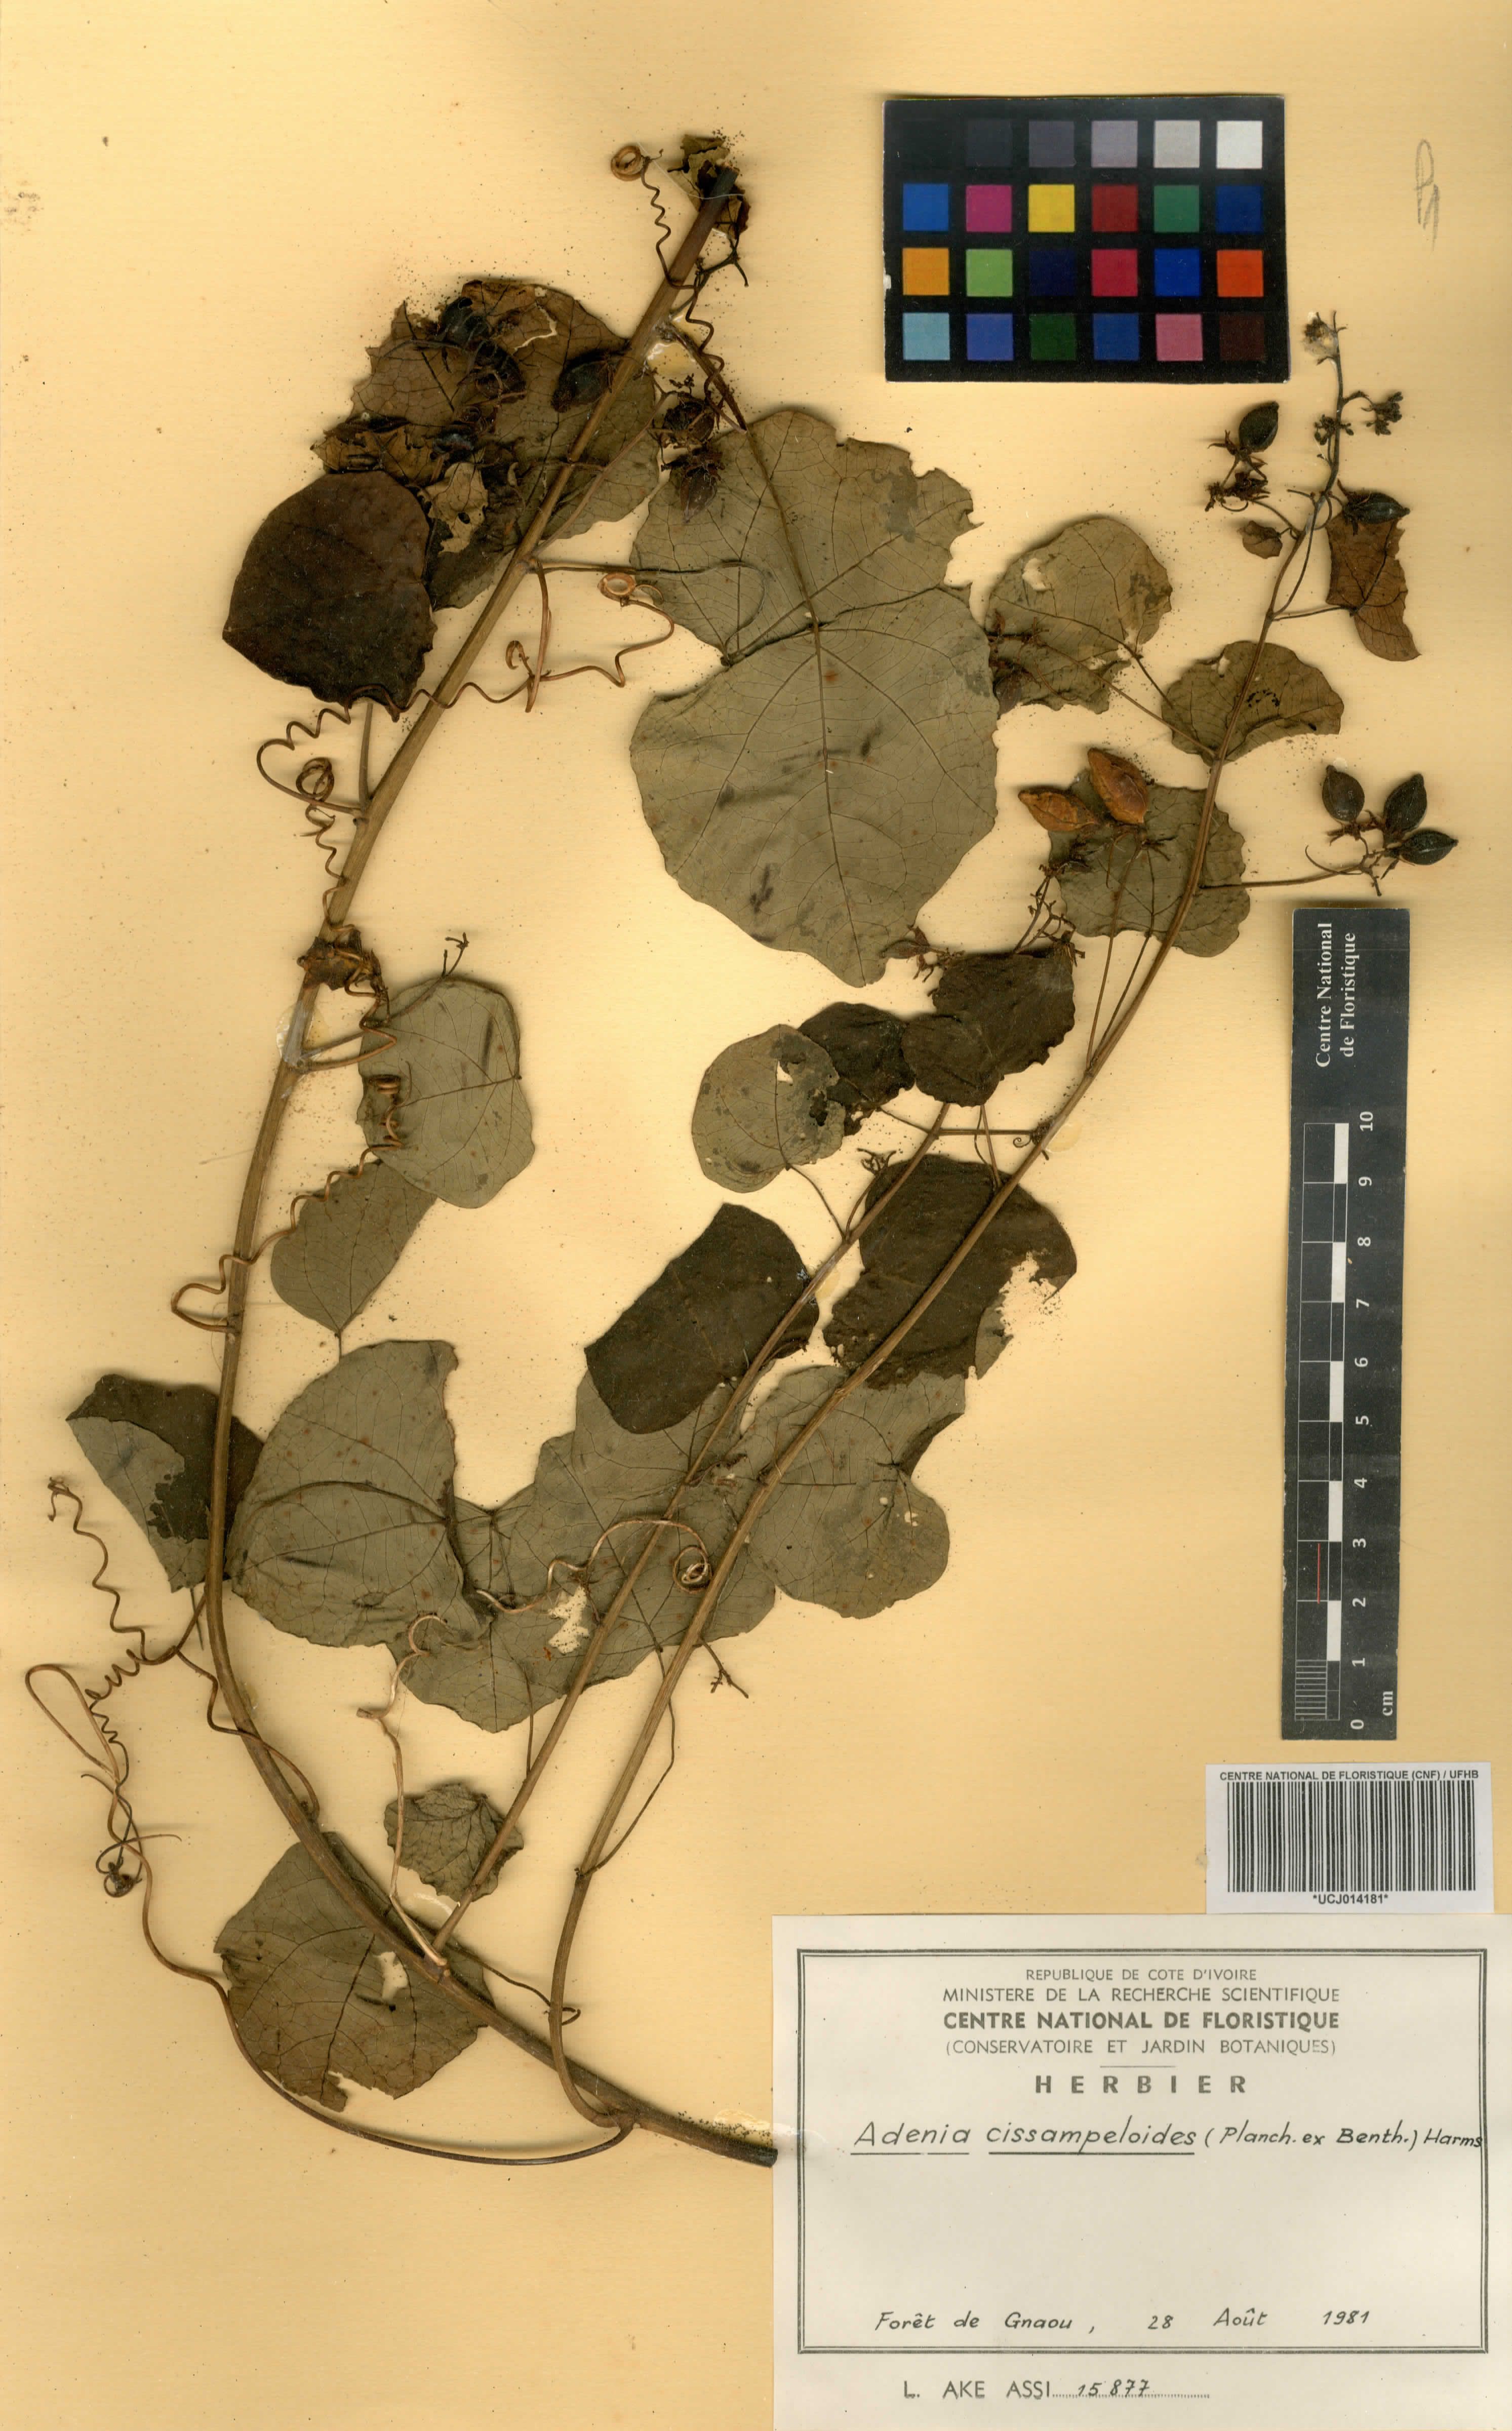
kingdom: Plantae
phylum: Tracheophyta
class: Magnoliopsida
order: Malpighiales
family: Passifloraceae
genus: Adenia
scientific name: Adenia cissampeloides
